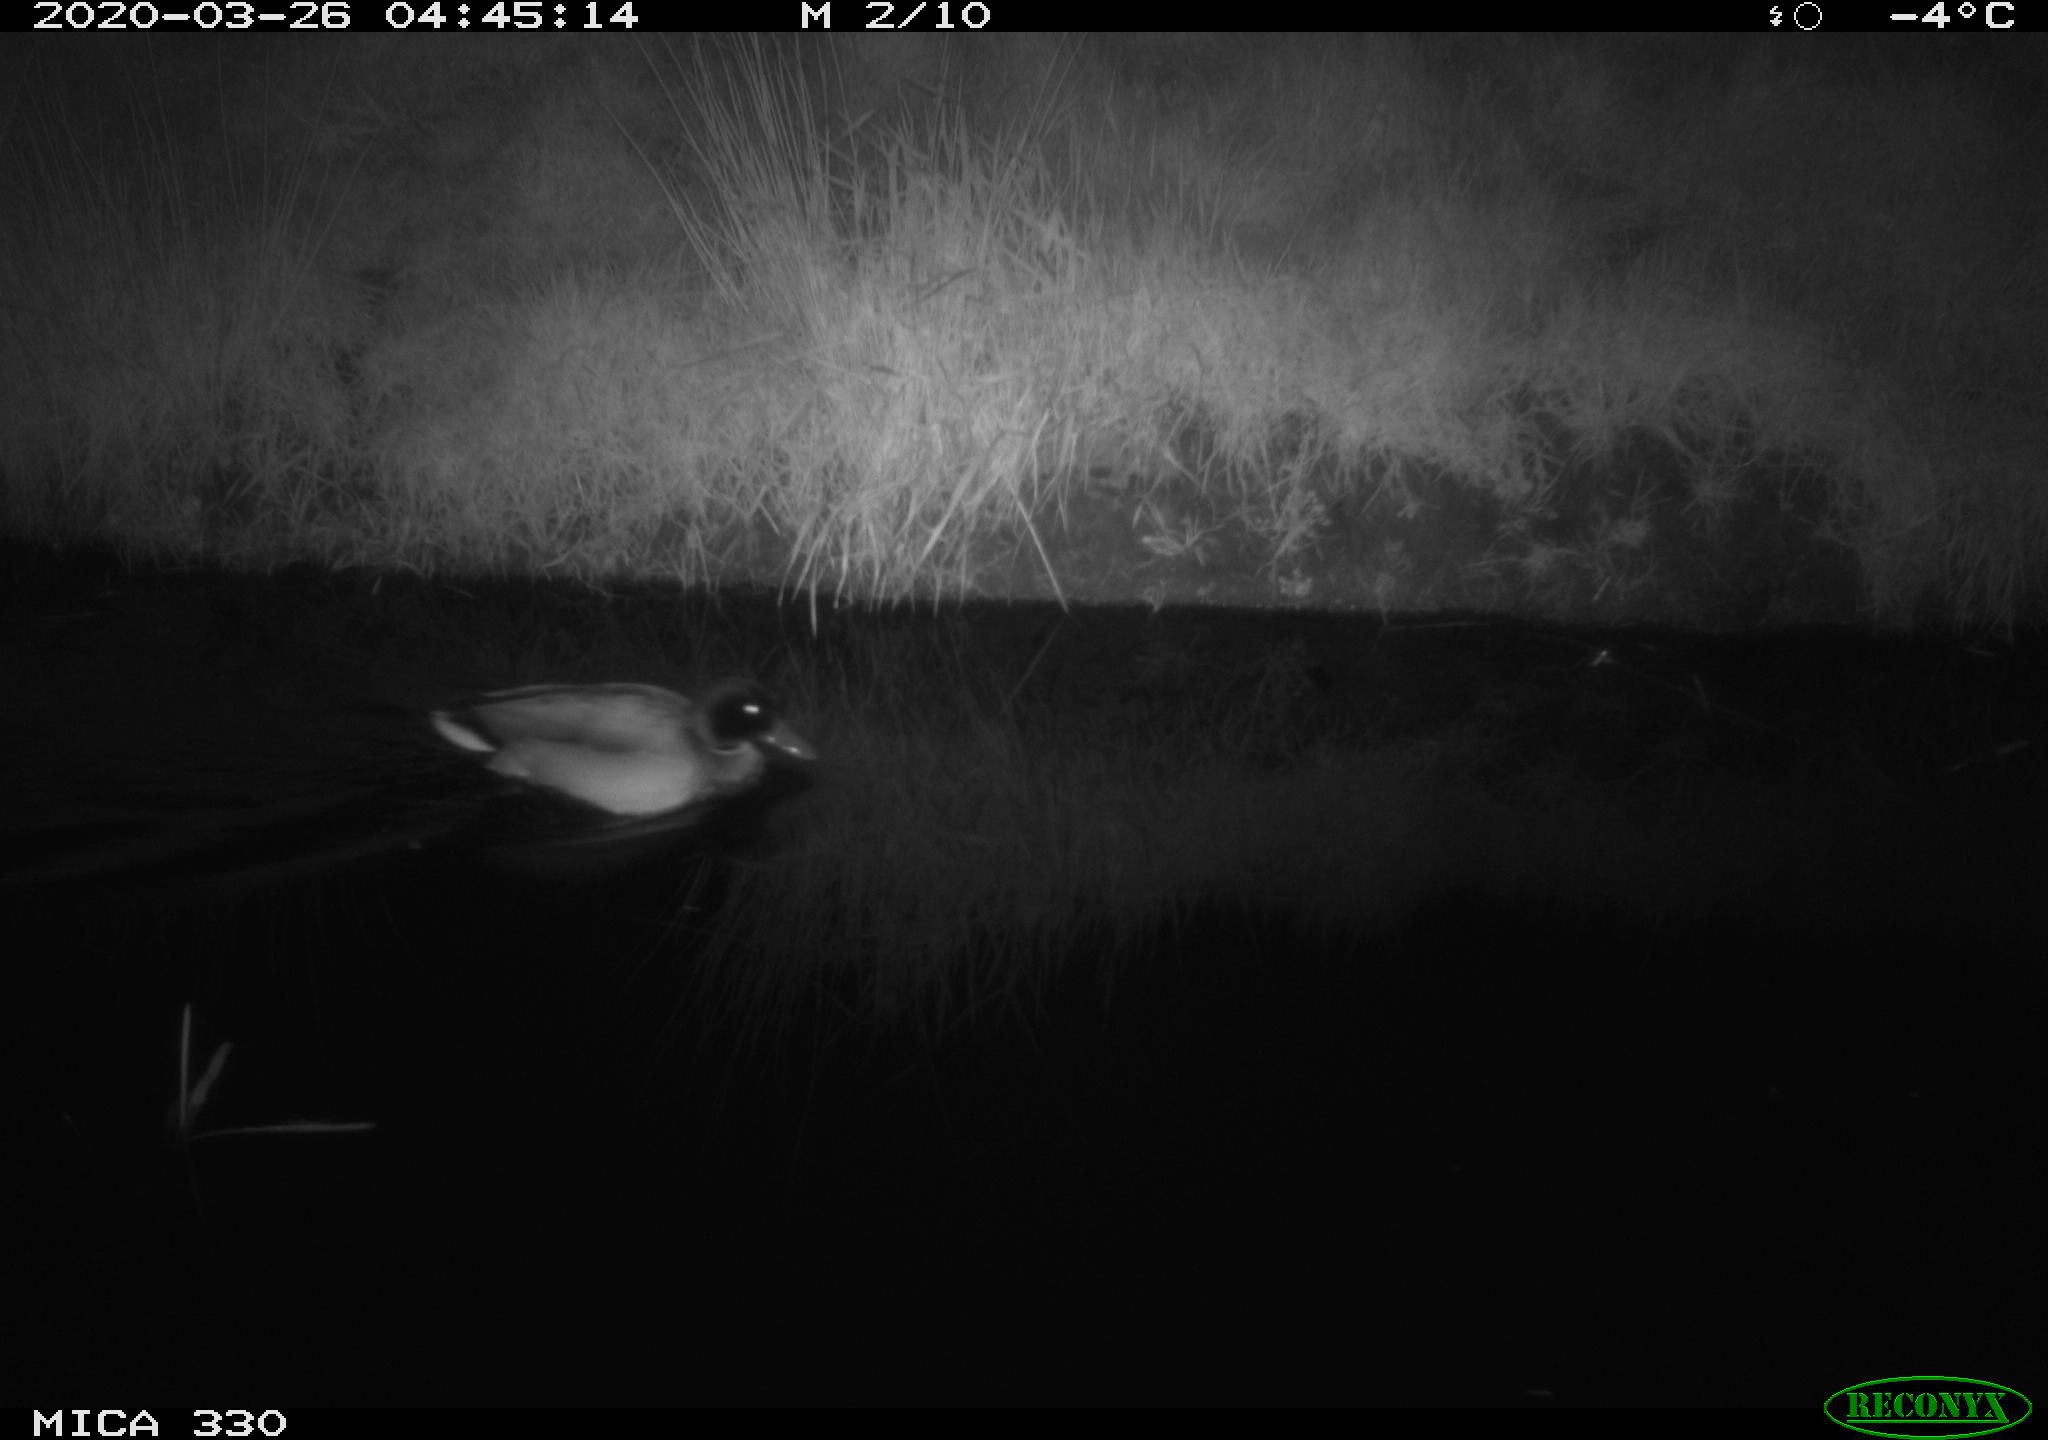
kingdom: Animalia
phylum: Chordata
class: Aves
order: Anseriformes
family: Anatidae
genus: Anas
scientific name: Anas platyrhynchos
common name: Mallard
